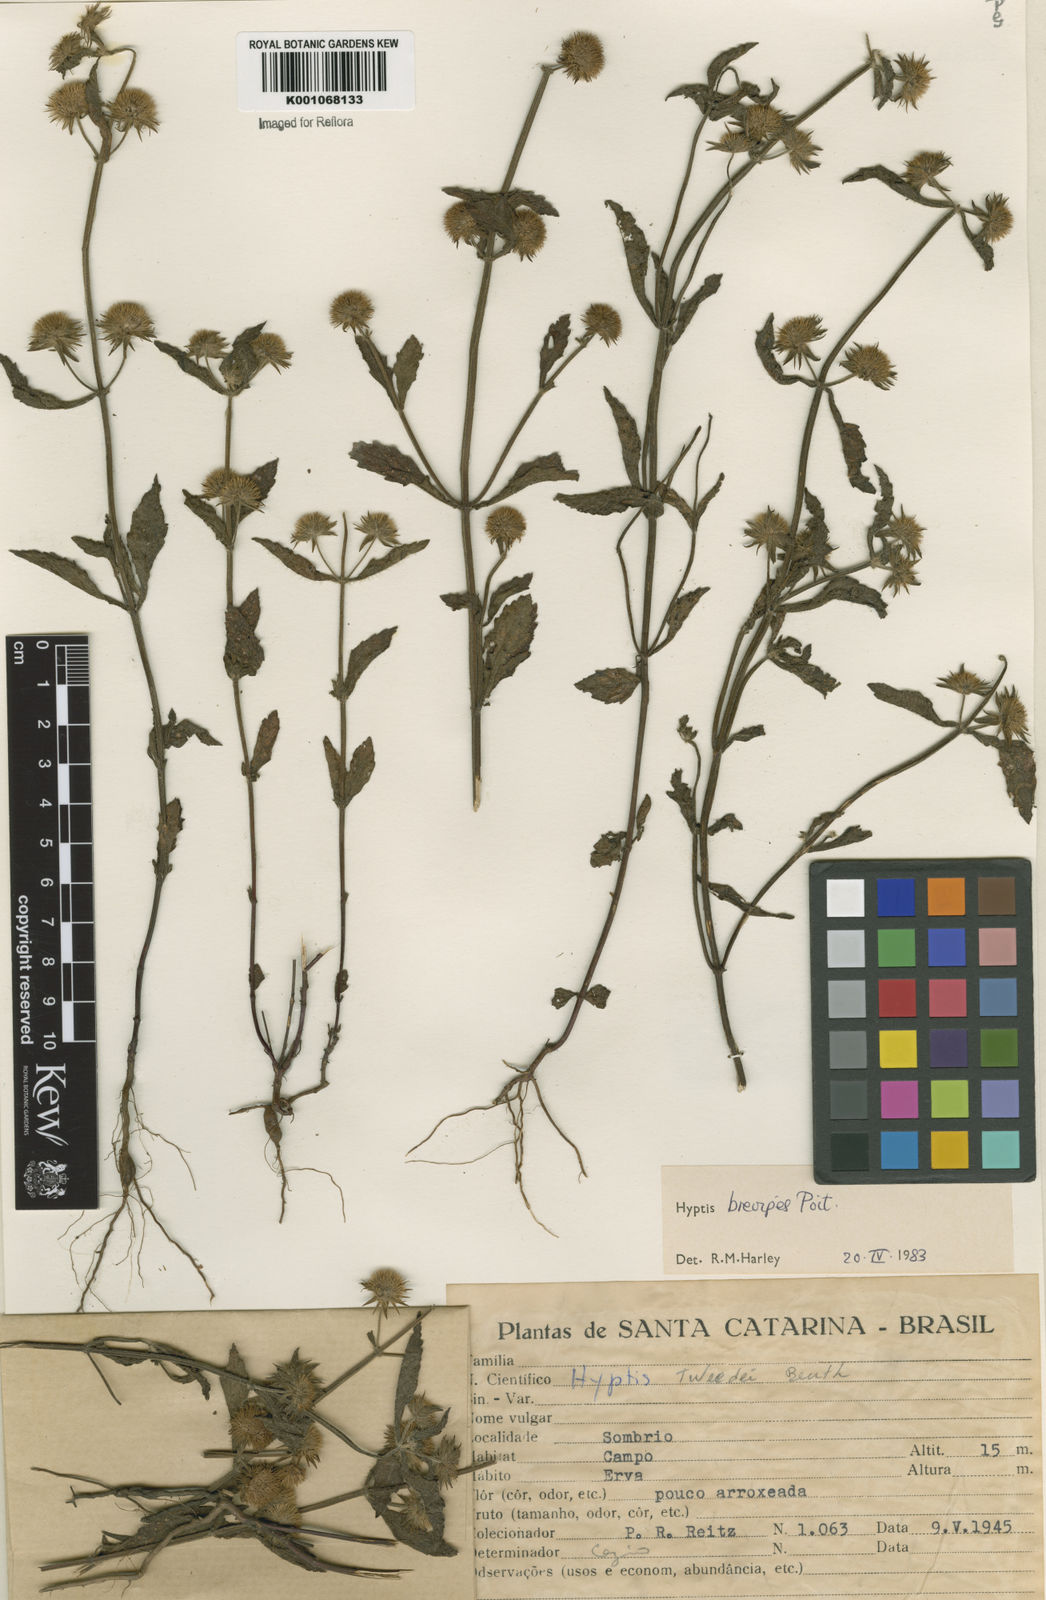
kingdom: Plantae
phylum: Tracheophyta
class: Magnoliopsida
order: Lamiales
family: Lamiaceae
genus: Hyptis
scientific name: Hyptis brevipes
